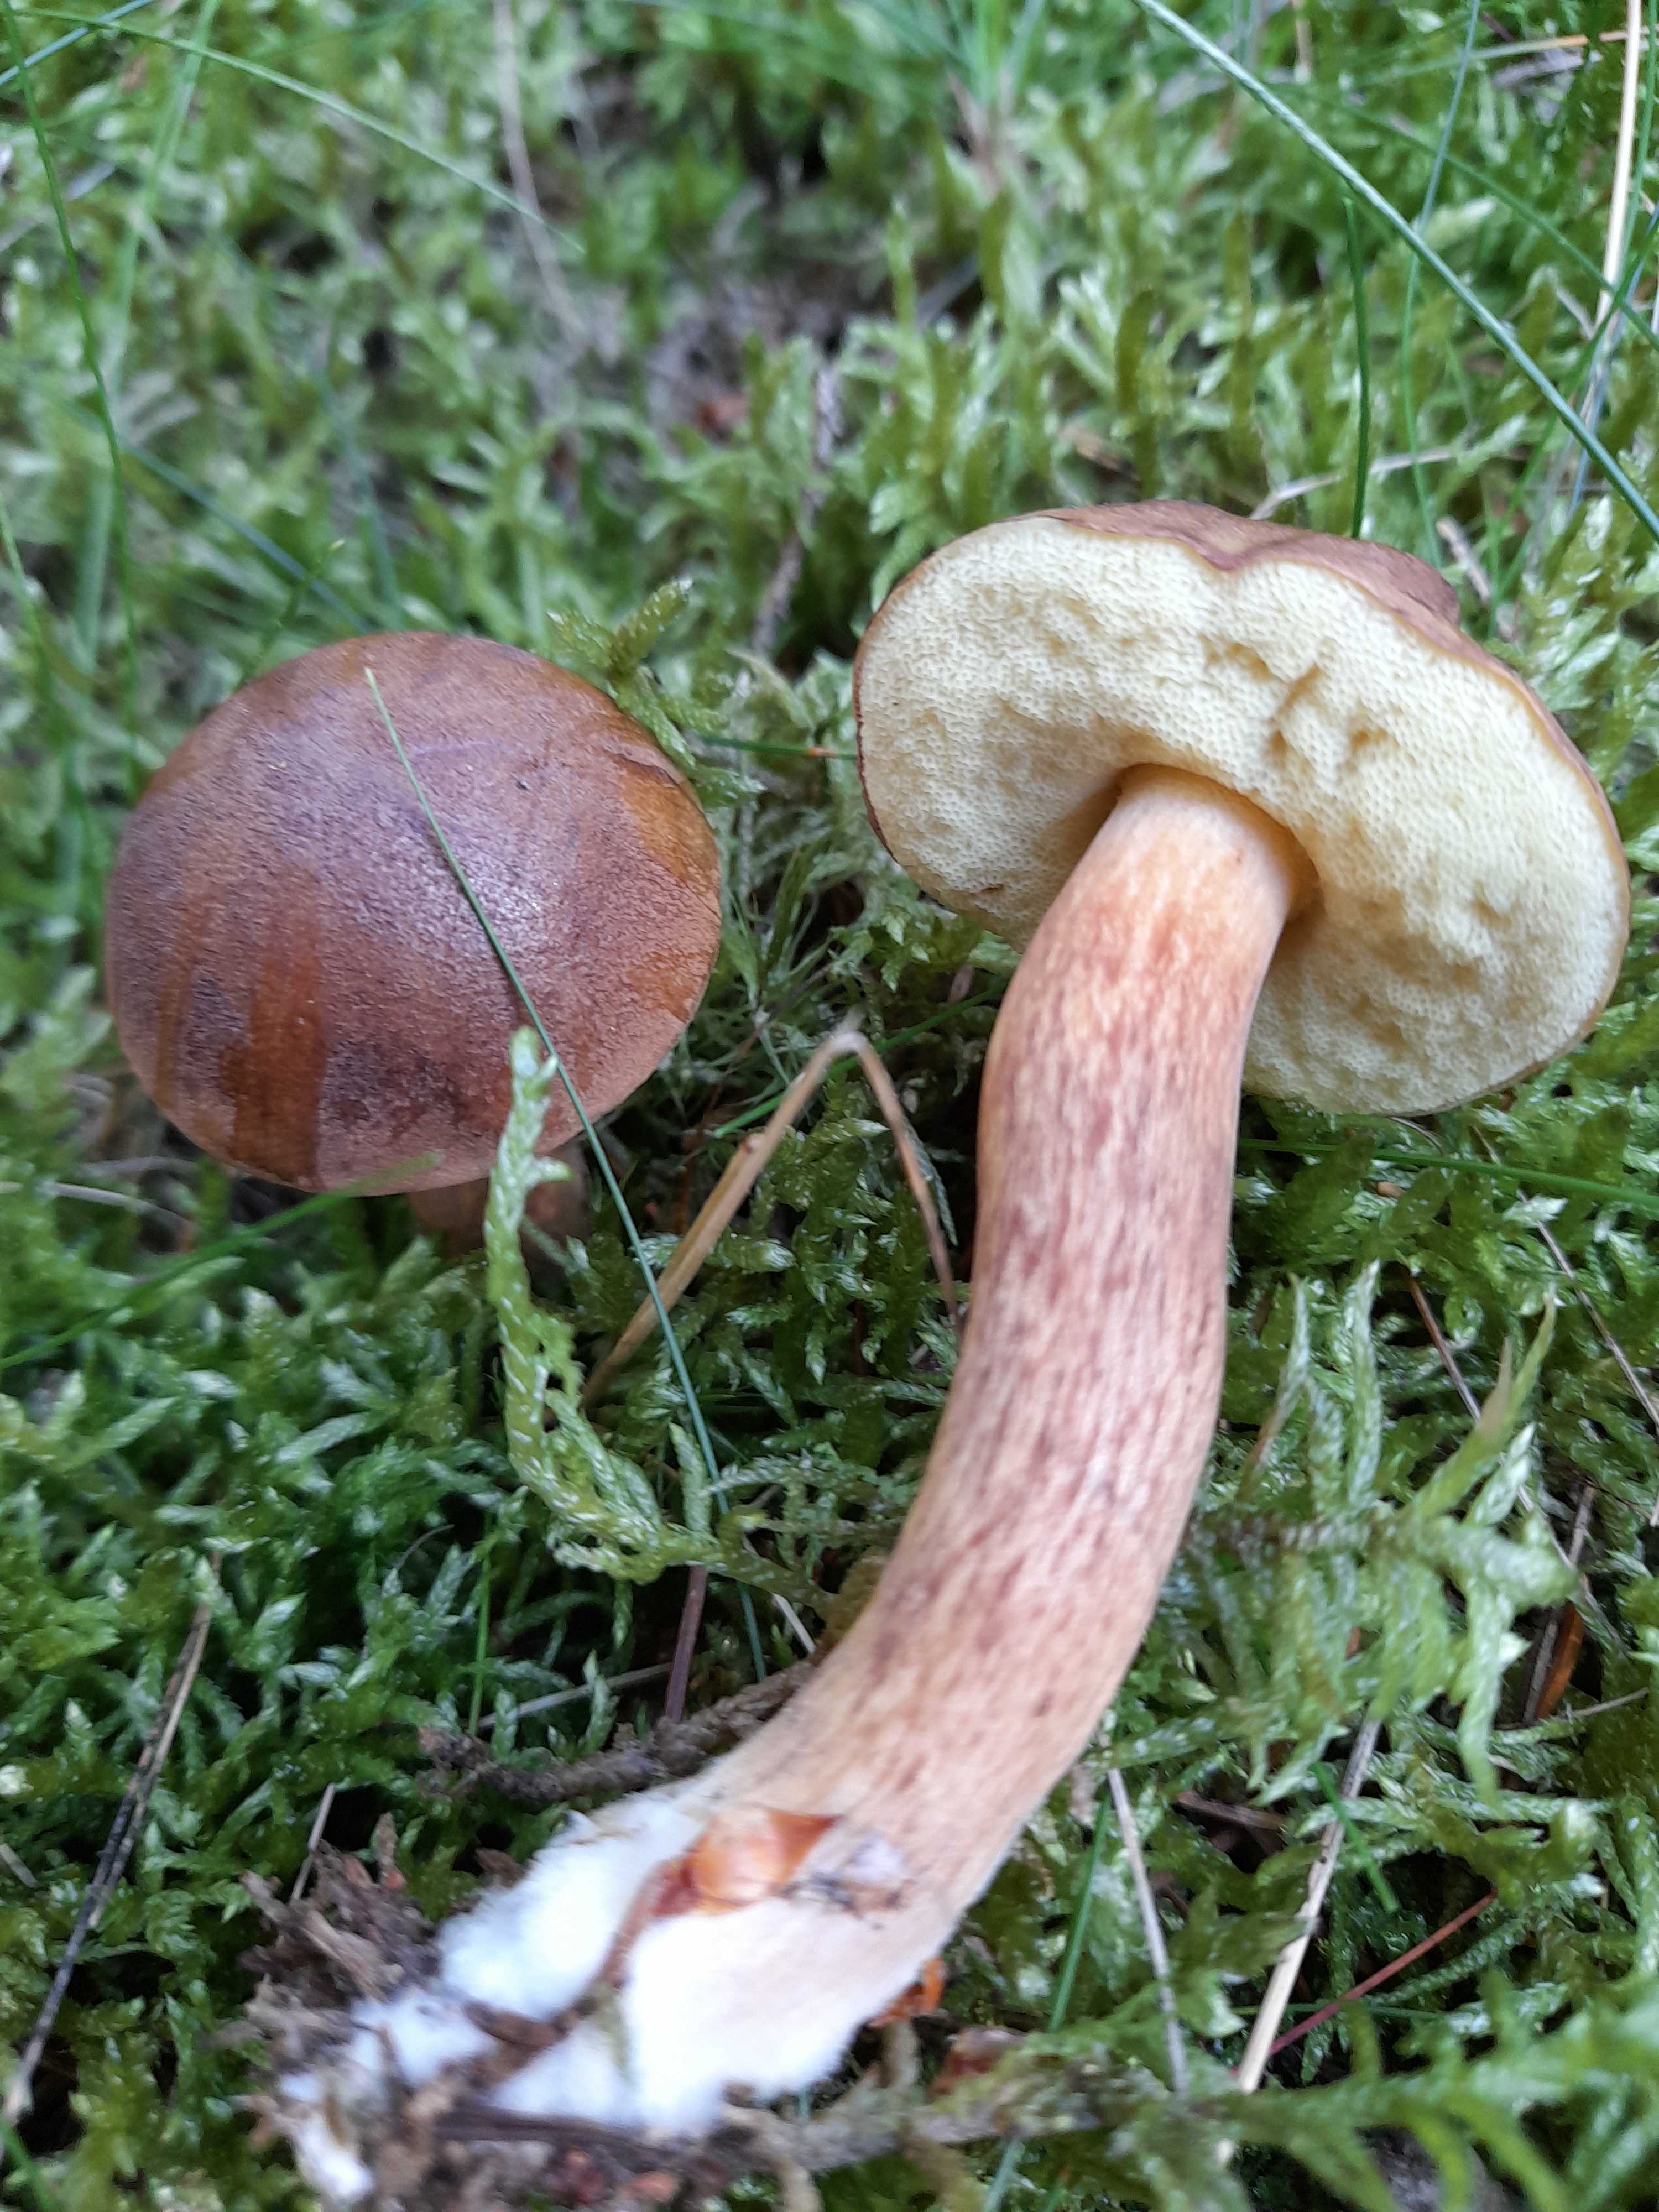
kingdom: Fungi
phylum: Basidiomycota
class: Agaricomycetes
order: Boletales
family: Boletaceae
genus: Imleria
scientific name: Imleria badia
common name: brunstokket rørhat
